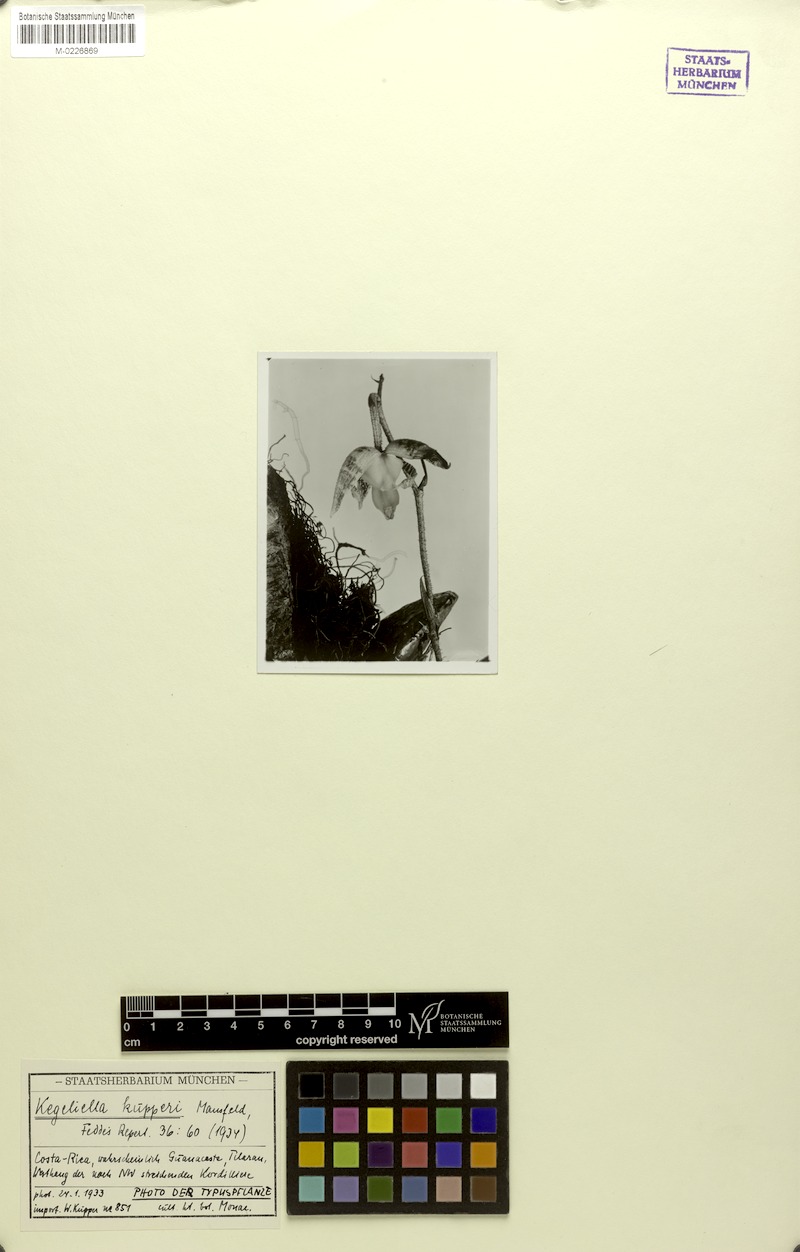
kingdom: Plantae
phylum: Tracheophyta
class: Liliopsida
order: Asparagales
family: Orchidaceae
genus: Kegeliella
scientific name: Kegeliella kupperi
